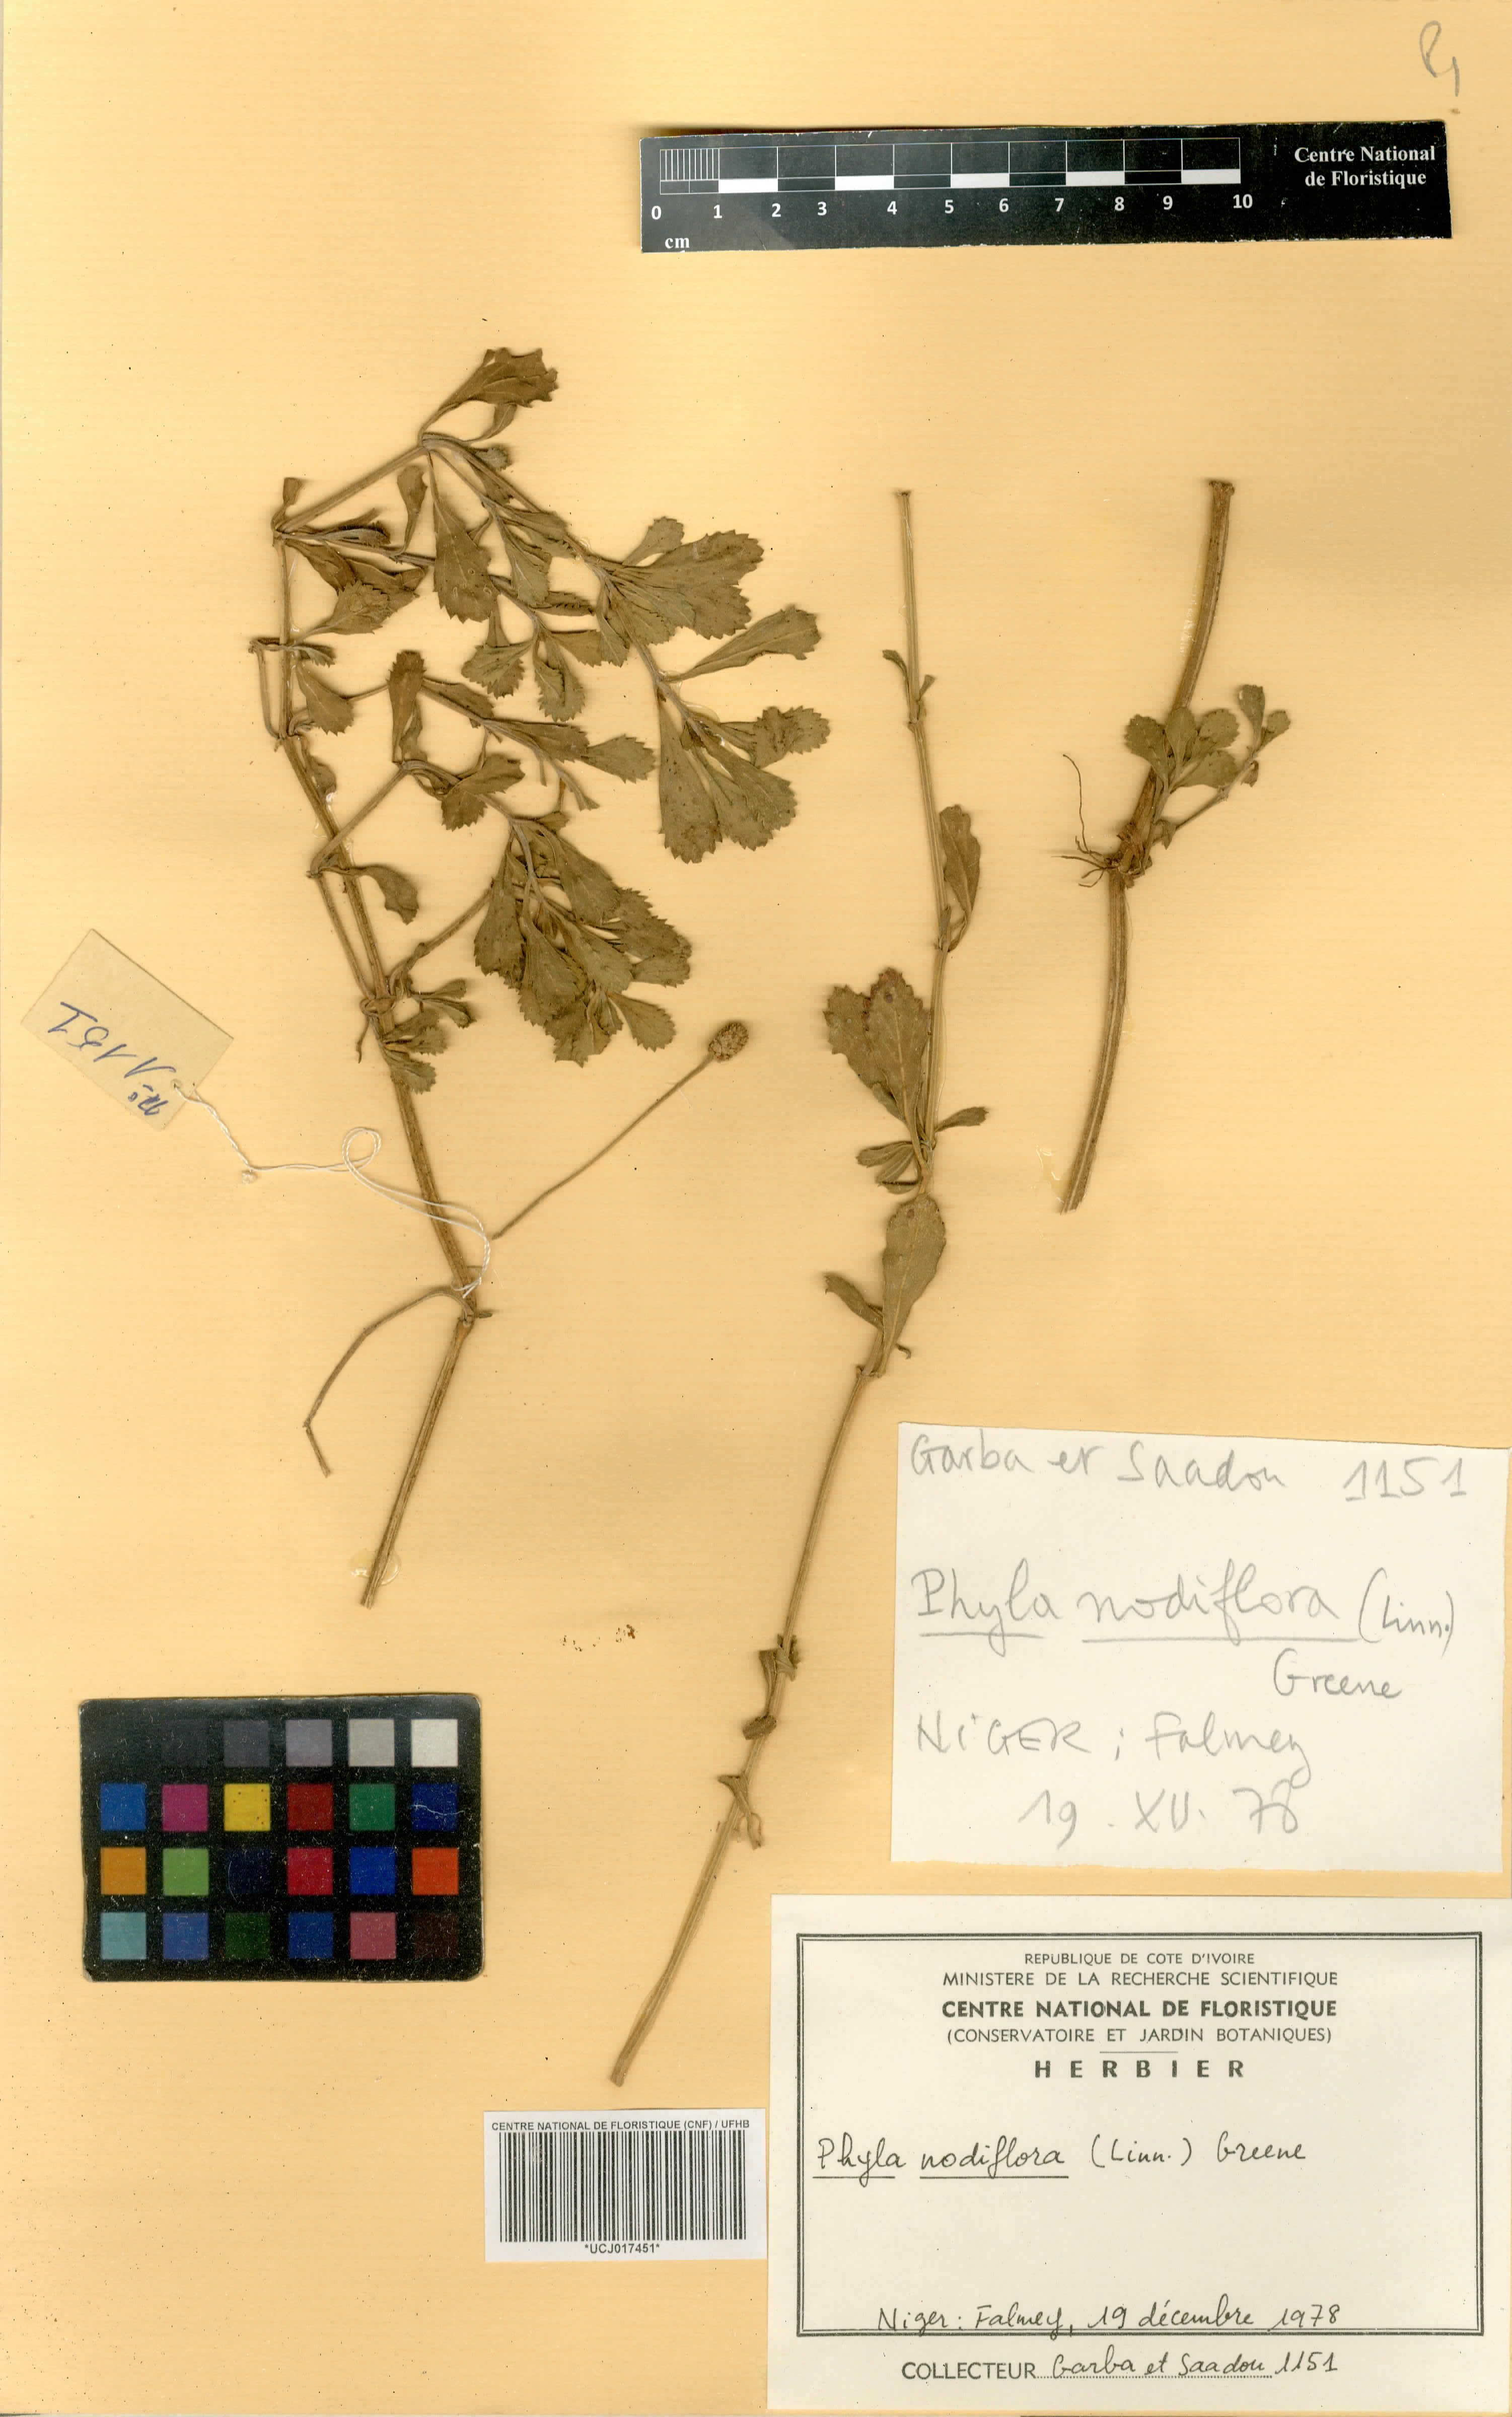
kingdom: Plantae
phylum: Tracheophyta
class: Magnoliopsida
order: Lamiales
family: Verbenaceae
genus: Phyla
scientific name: Phyla nodiflora
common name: Frogfruit
